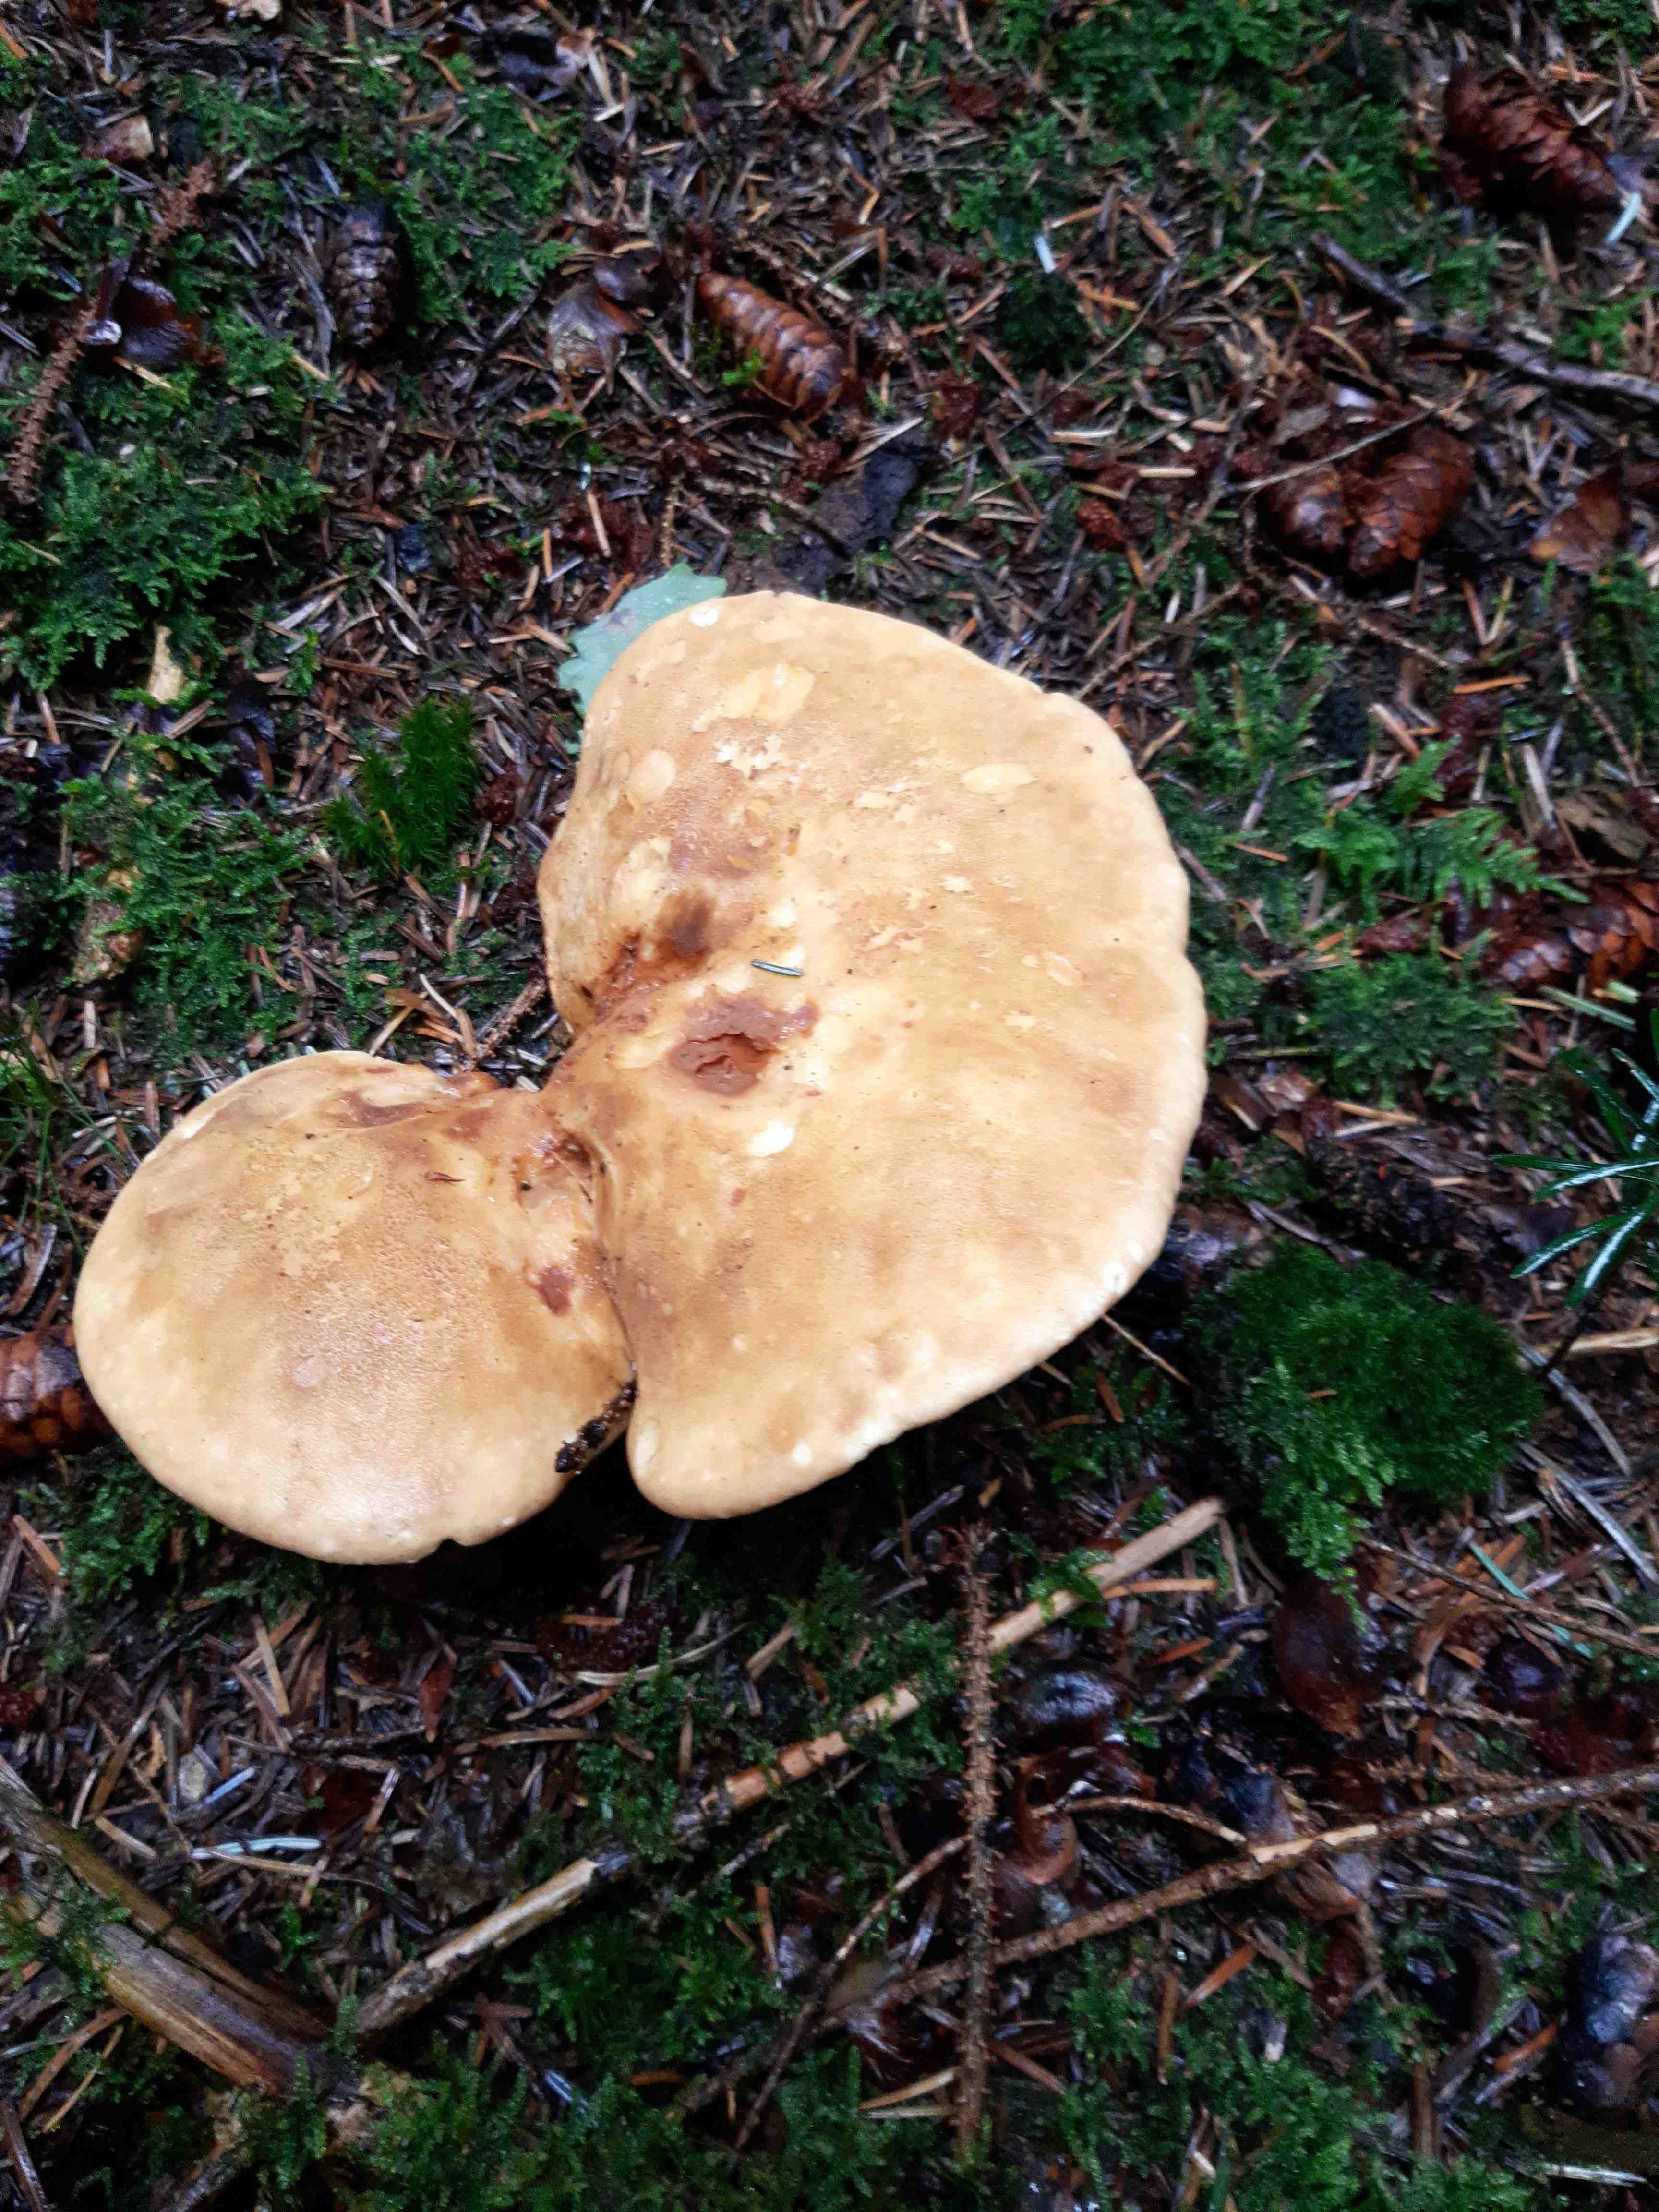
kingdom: Fungi
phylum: Basidiomycota
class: Agaricomycetes
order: Boletales
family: Tapinellaceae
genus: Tapinella
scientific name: Tapinella atrotomentosa
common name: sortfiltet viftesvamp
